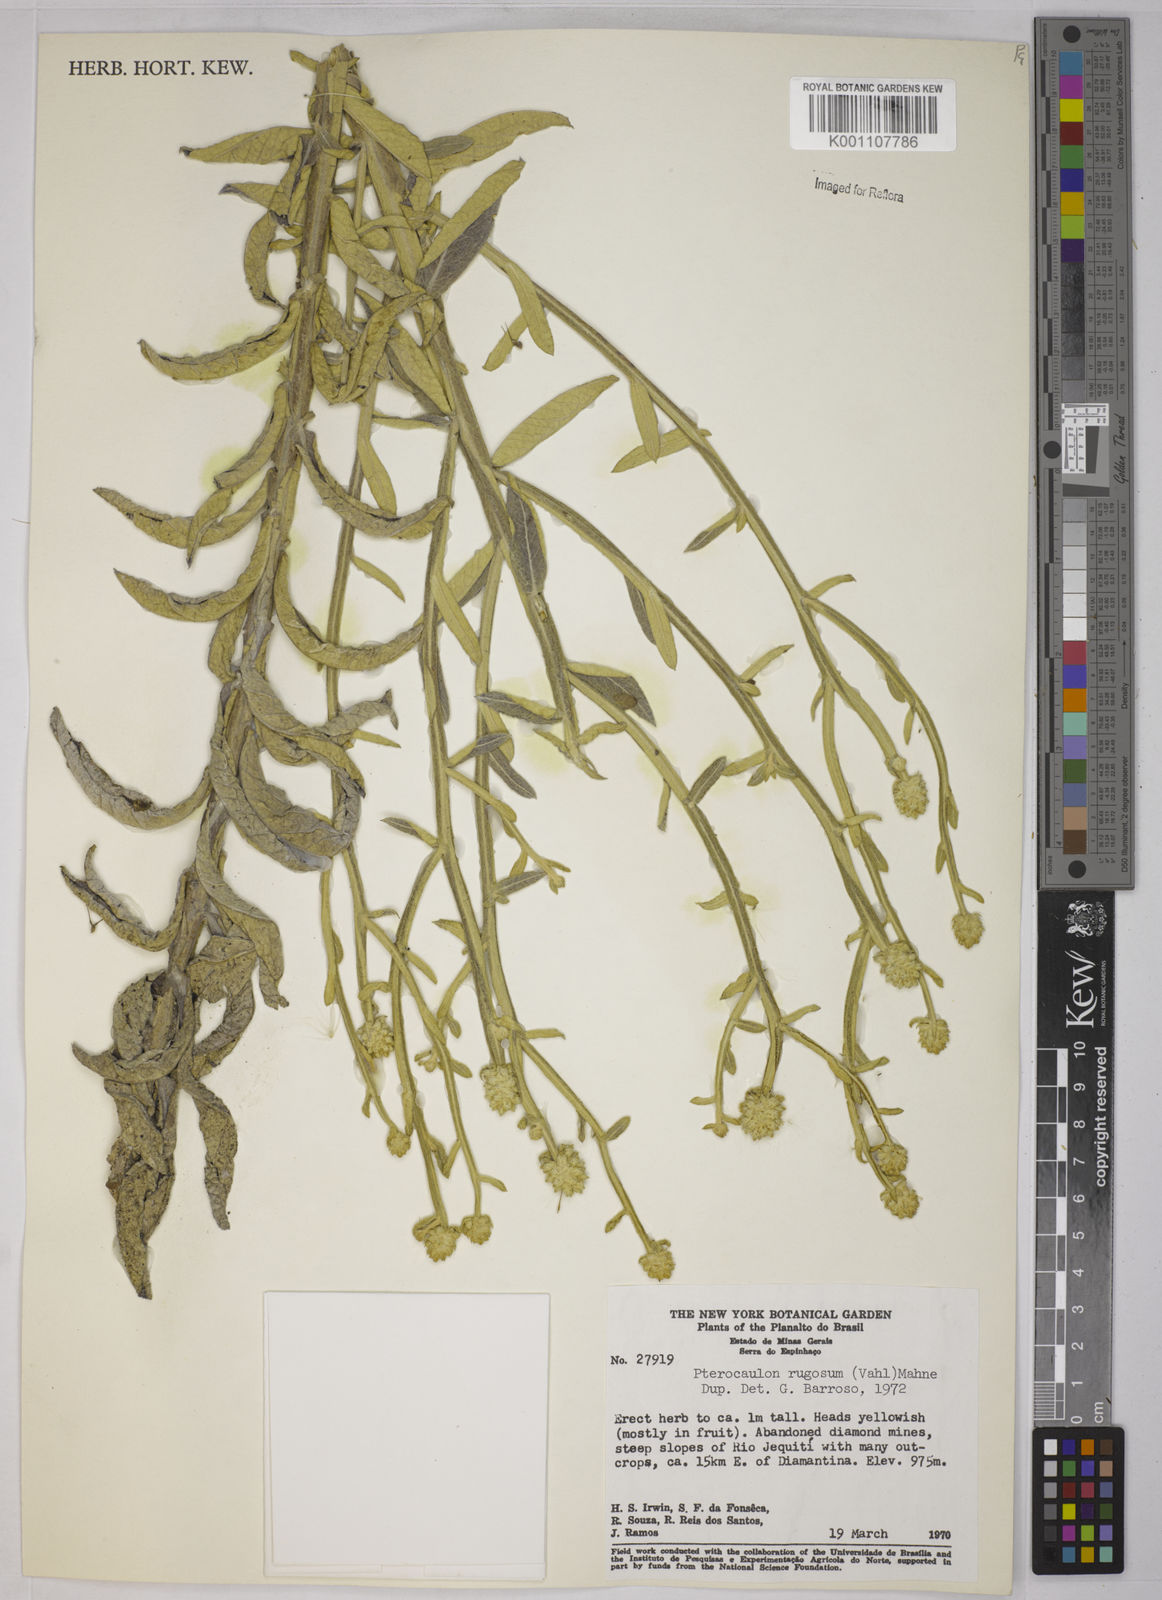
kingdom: Plantae
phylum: Tracheophyta
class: Magnoliopsida
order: Asterales
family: Asteraceae
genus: Pterocaulon
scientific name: Pterocaulon angustifolium
